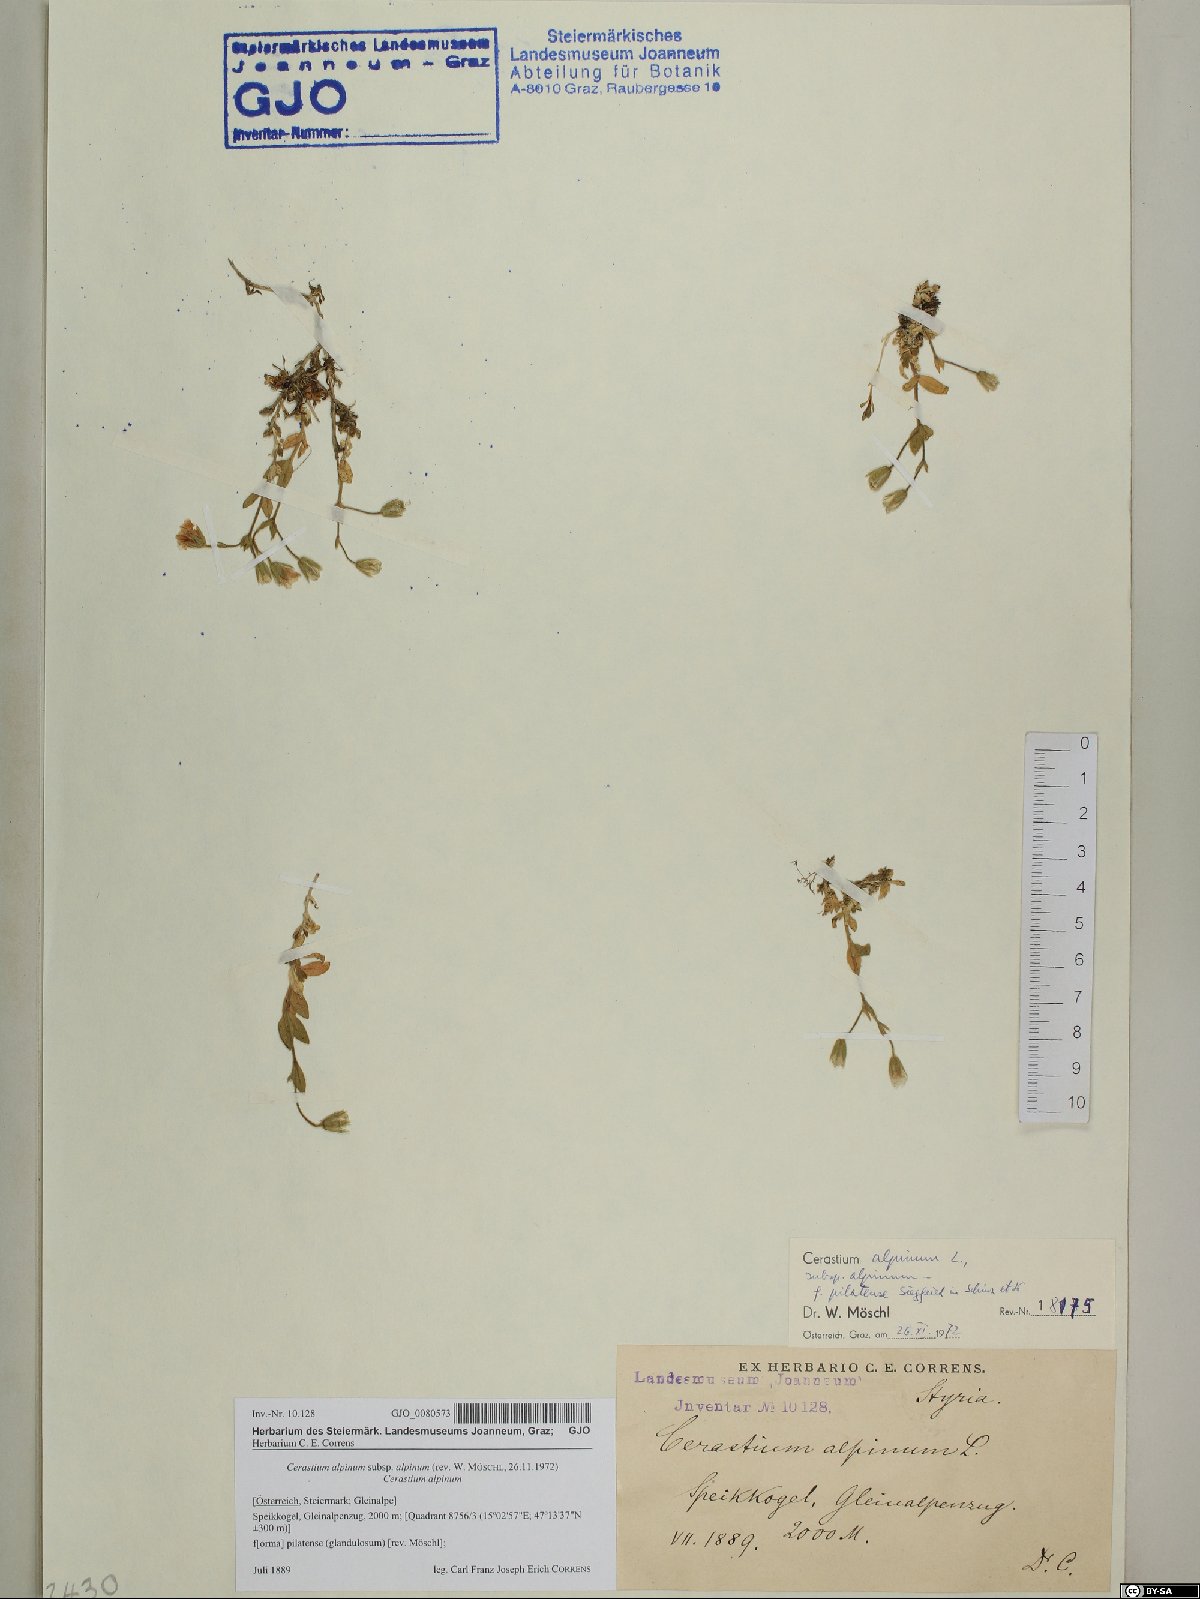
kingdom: Plantae
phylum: Tracheophyta
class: Magnoliopsida
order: Caryophyllales
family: Caryophyllaceae
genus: Cerastium
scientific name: Cerastium alpinum
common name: Alpine mouse-ear
